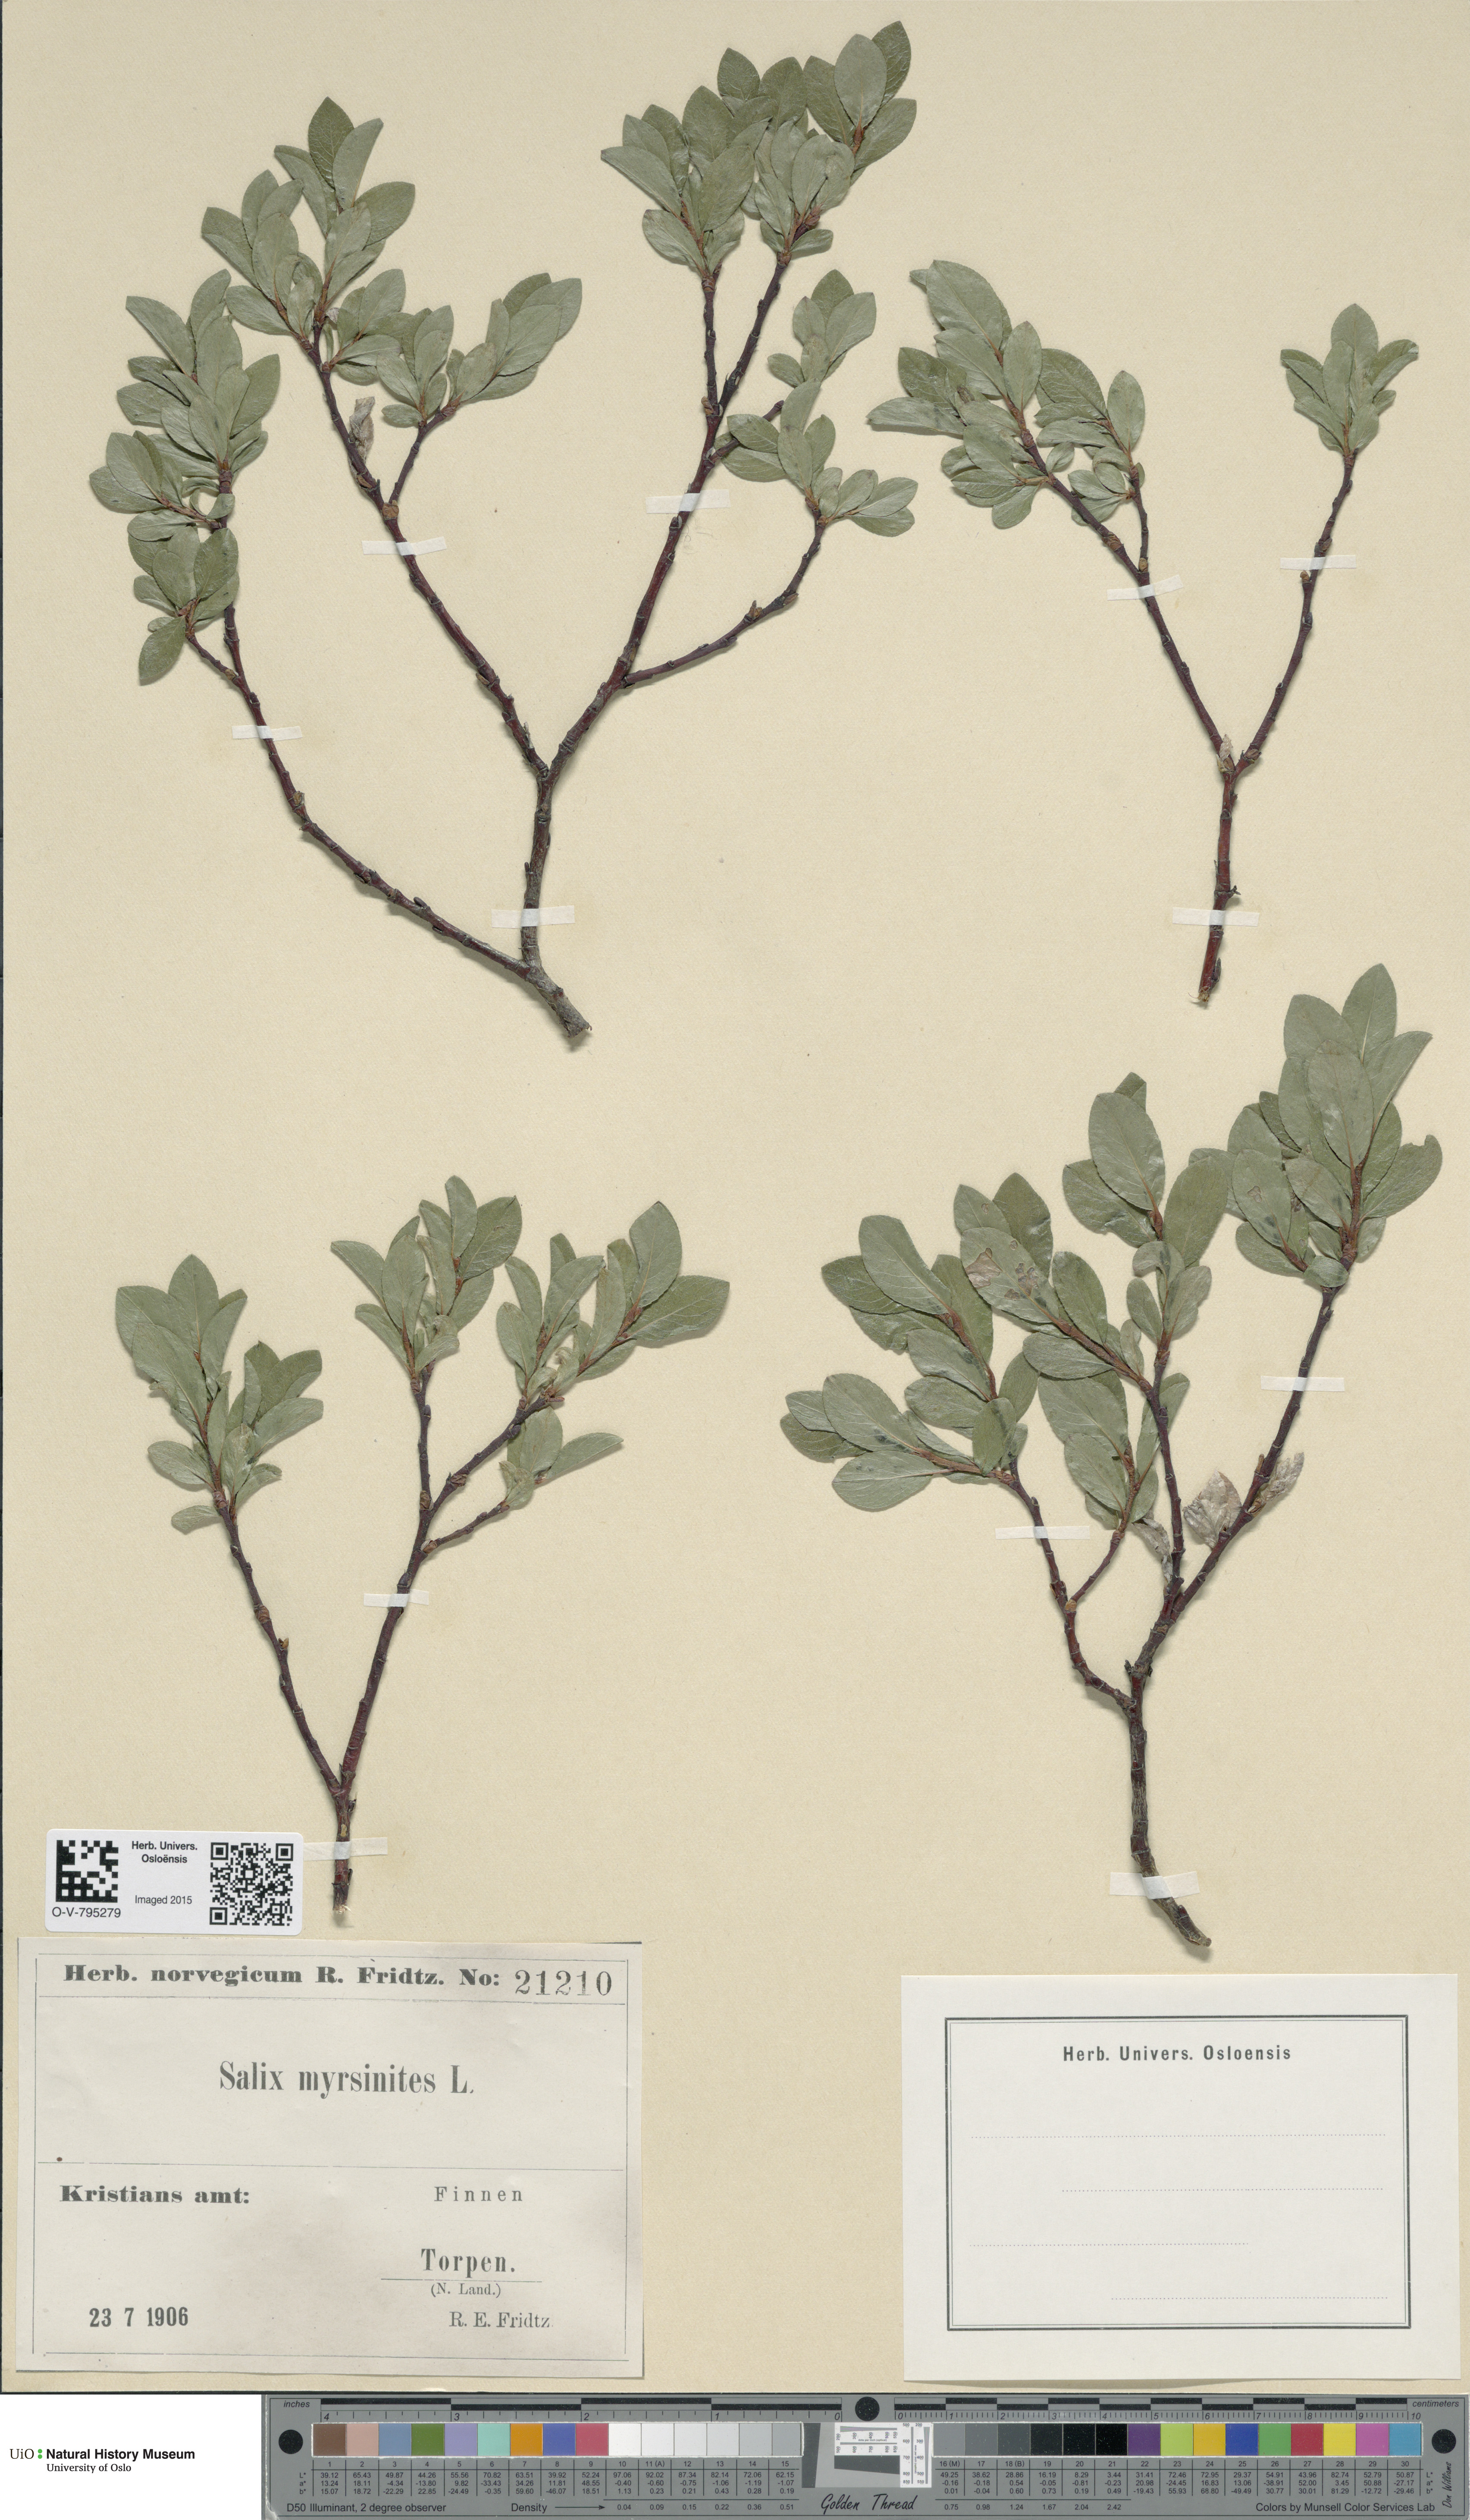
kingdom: Plantae
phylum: Tracheophyta
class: Magnoliopsida
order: Malpighiales
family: Salicaceae
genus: Salix
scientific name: Salix myrsinites
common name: Myrtle willow
